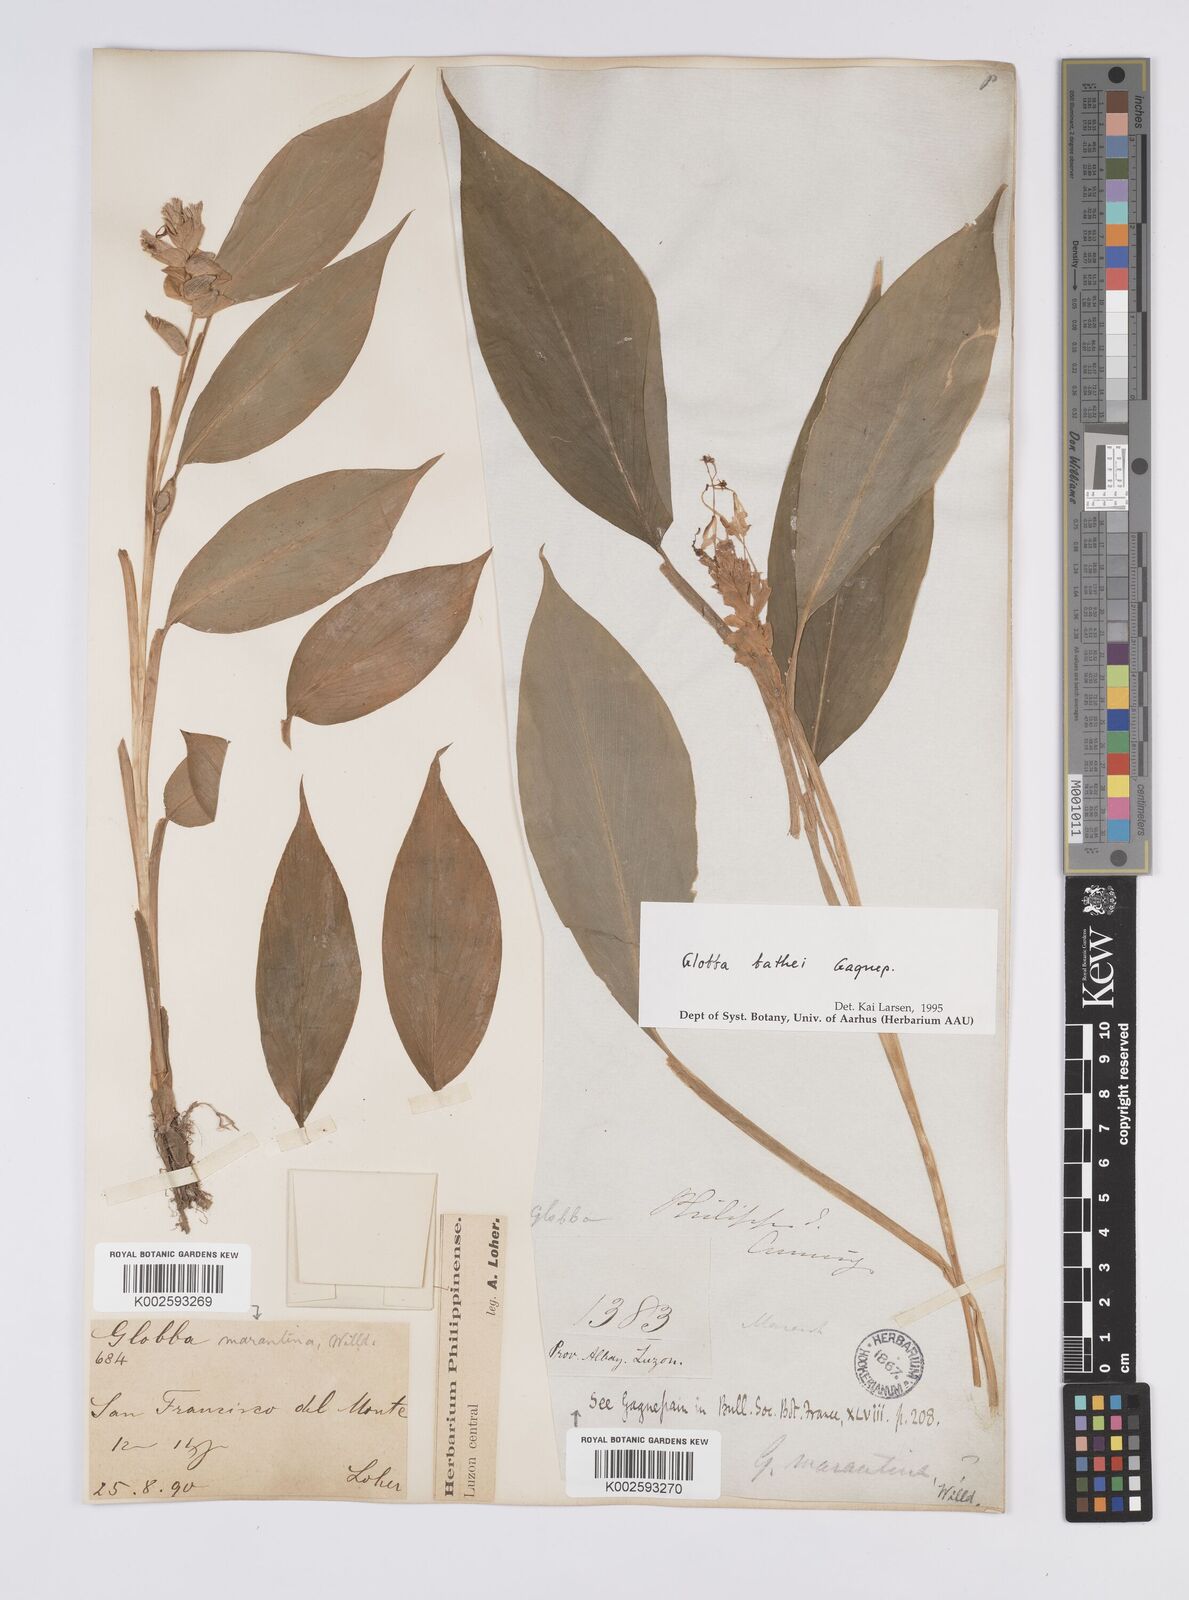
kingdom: Plantae
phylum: Tracheophyta
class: Liliopsida
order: Zingiberales
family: Zingiberaceae
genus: Globba
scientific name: Globba marantina
